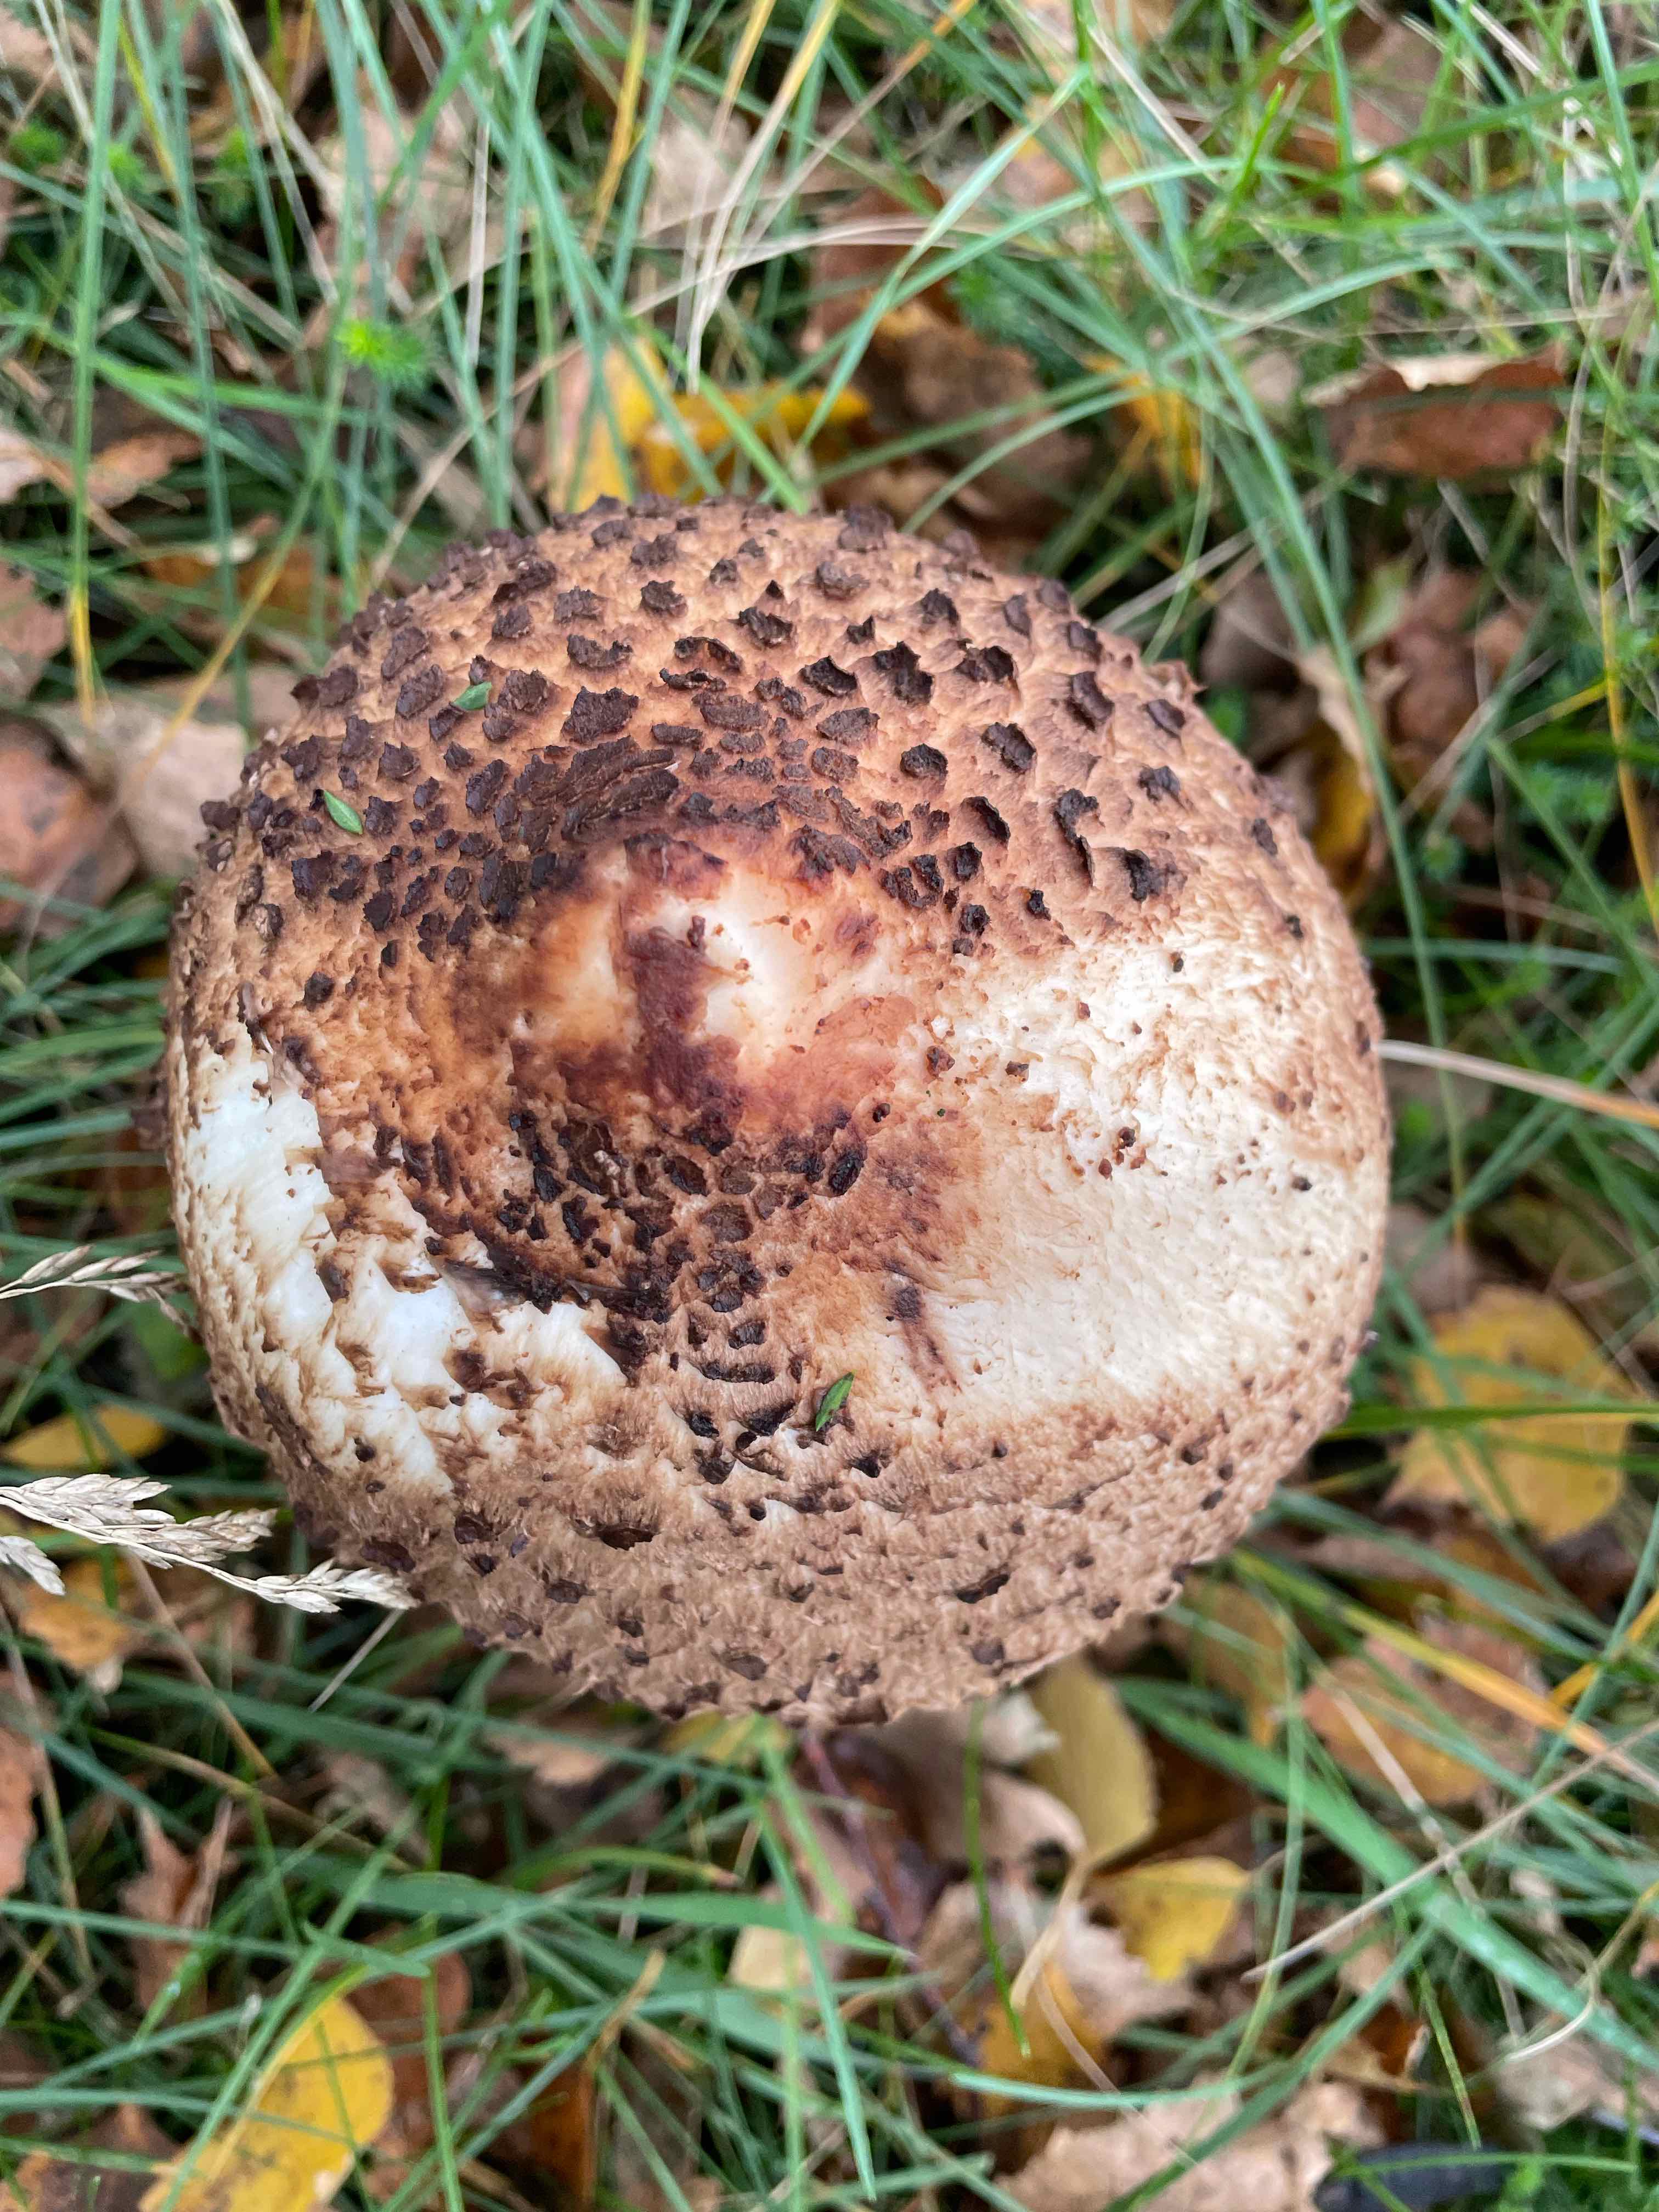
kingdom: Fungi
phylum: Basidiomycota
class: Agaricomycetes
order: Agaricales
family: Agaricaceae
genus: Macrolepiota
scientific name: Macrolepiota procera
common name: stor kæmpeparasolhat
